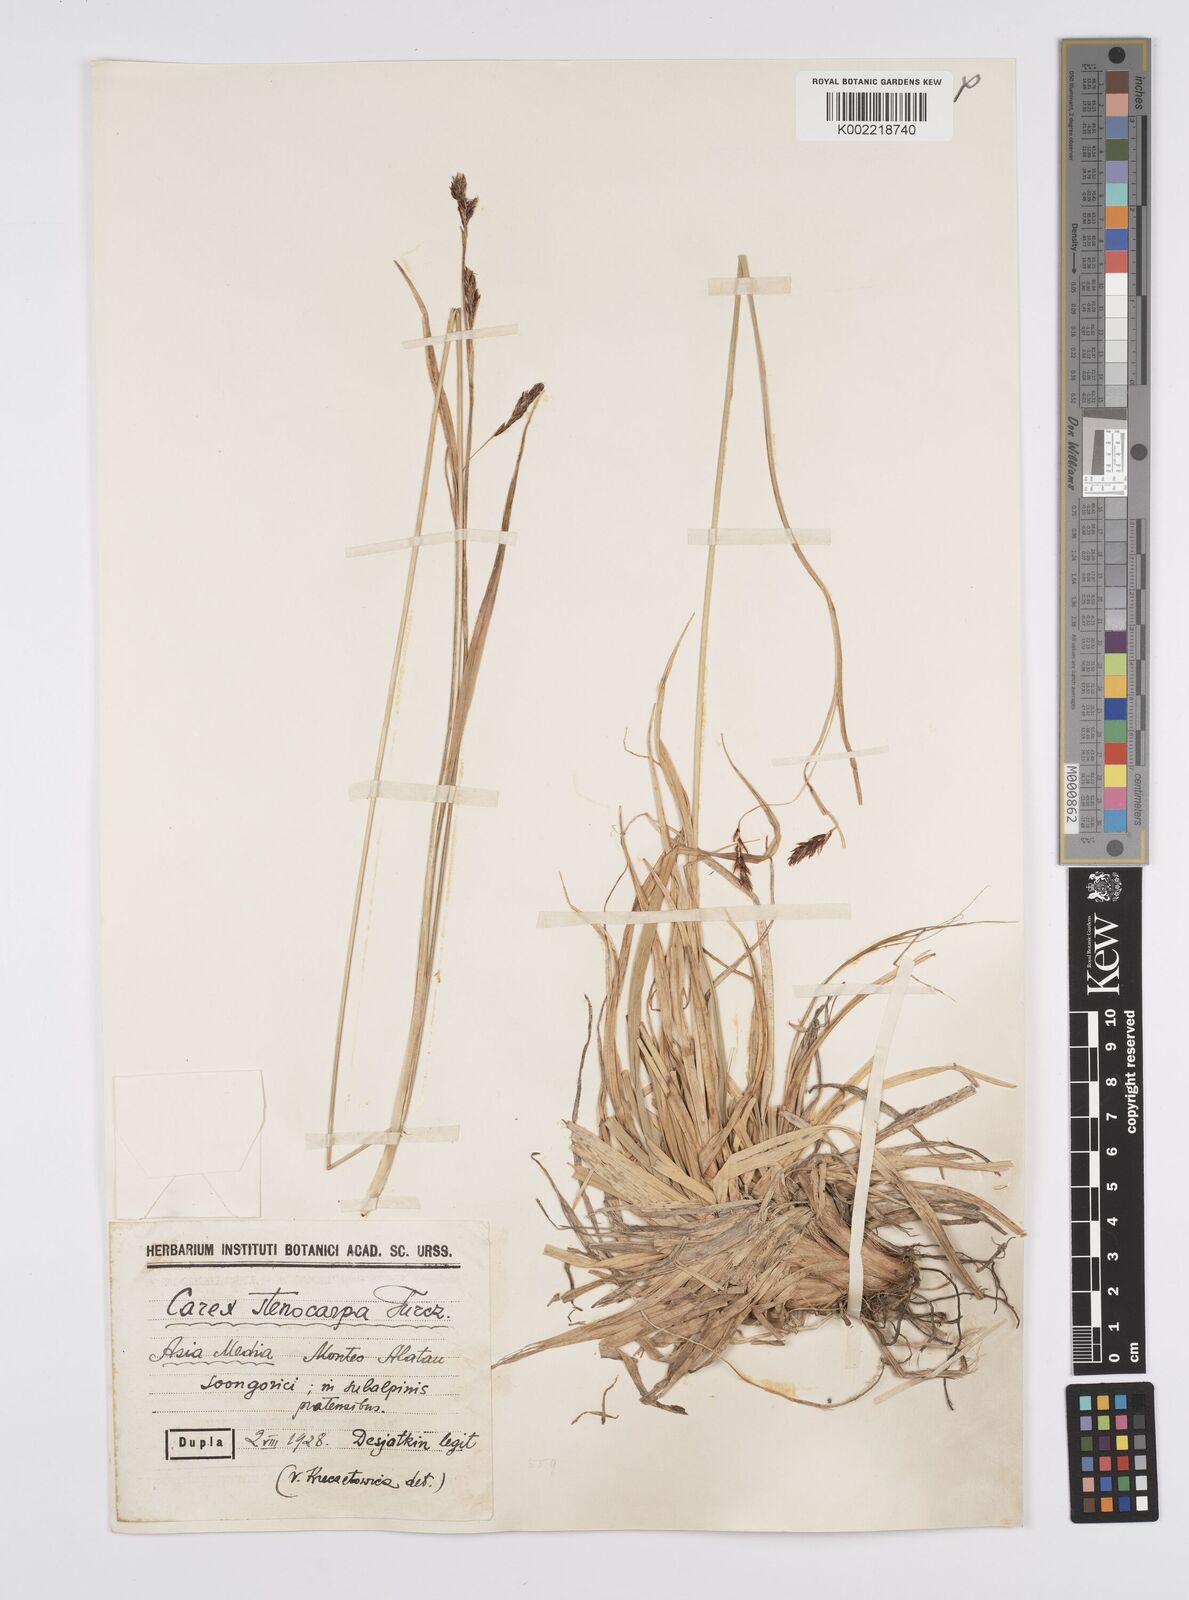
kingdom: Plantae
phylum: Tracheophyta
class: Liliopsida
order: Poales
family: Cyperaceae
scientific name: Cyperaceae
